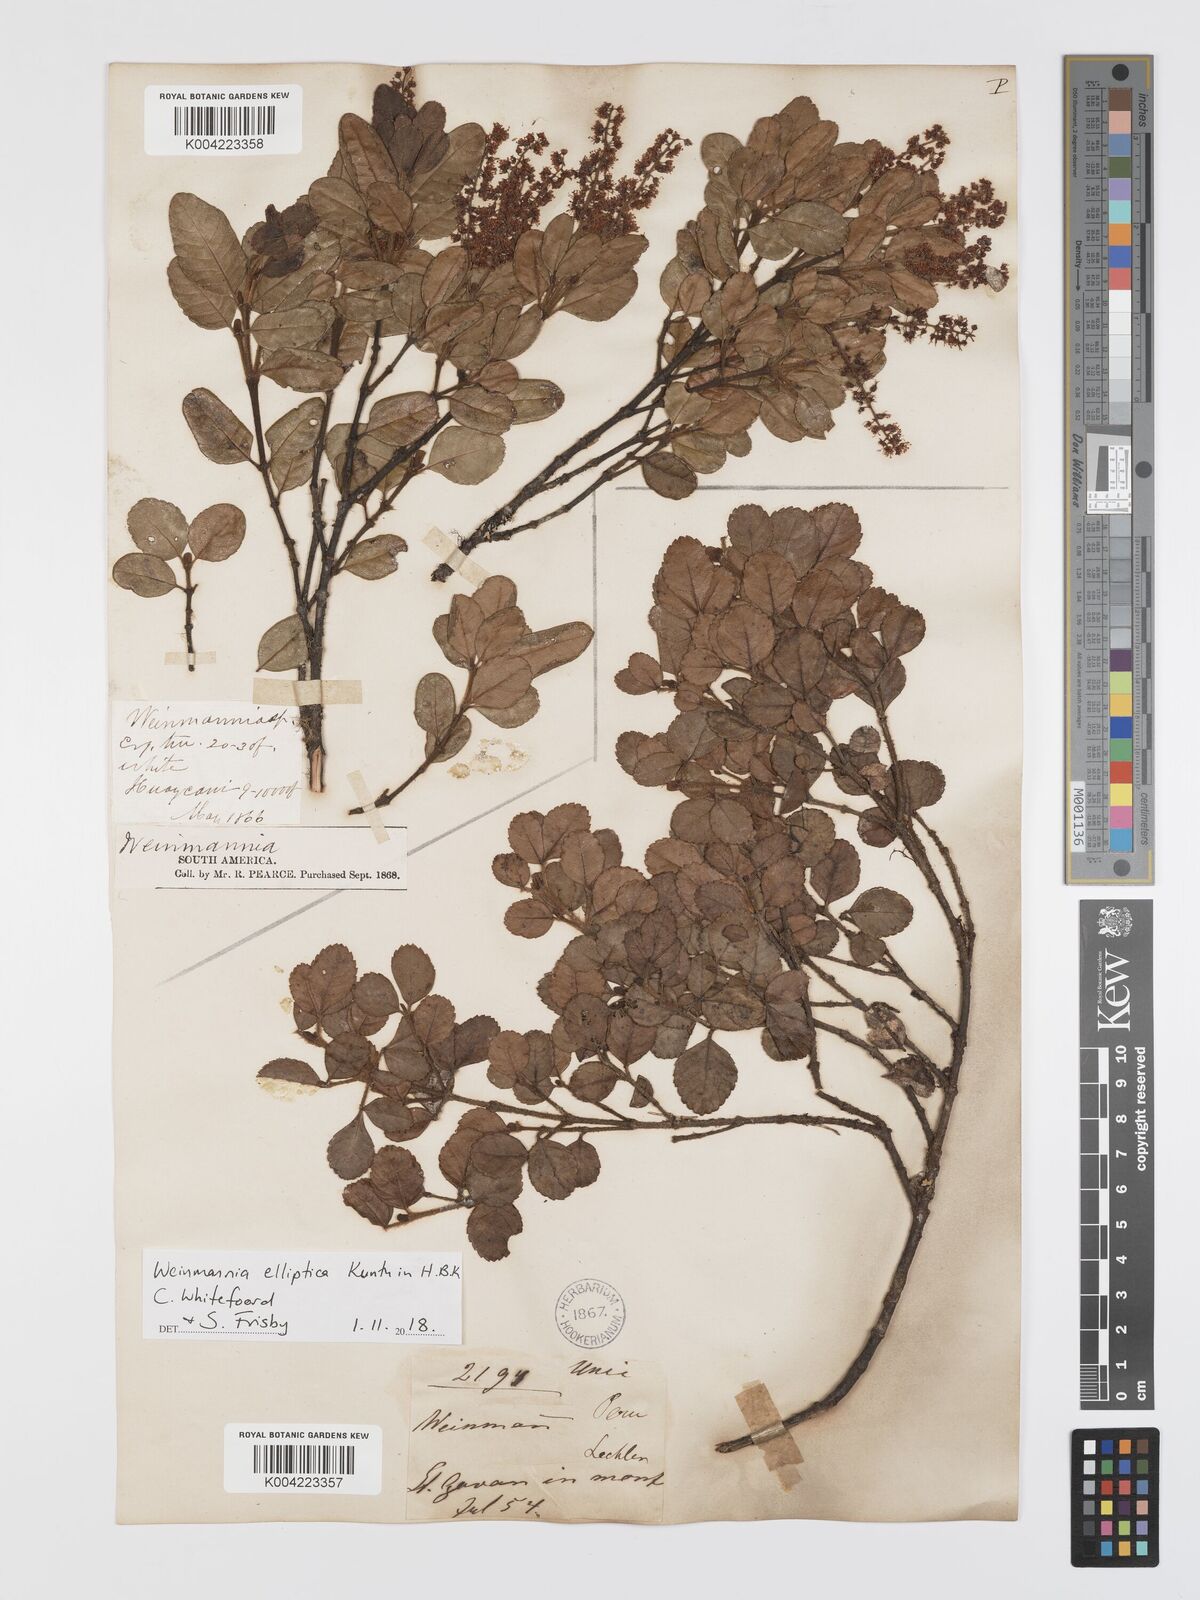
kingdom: Plantae
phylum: Tracheophyta
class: Magnoliopsida
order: Oxalidales
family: Cunoniaceae
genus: Weinmannia
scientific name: Weinmannia elliptica
